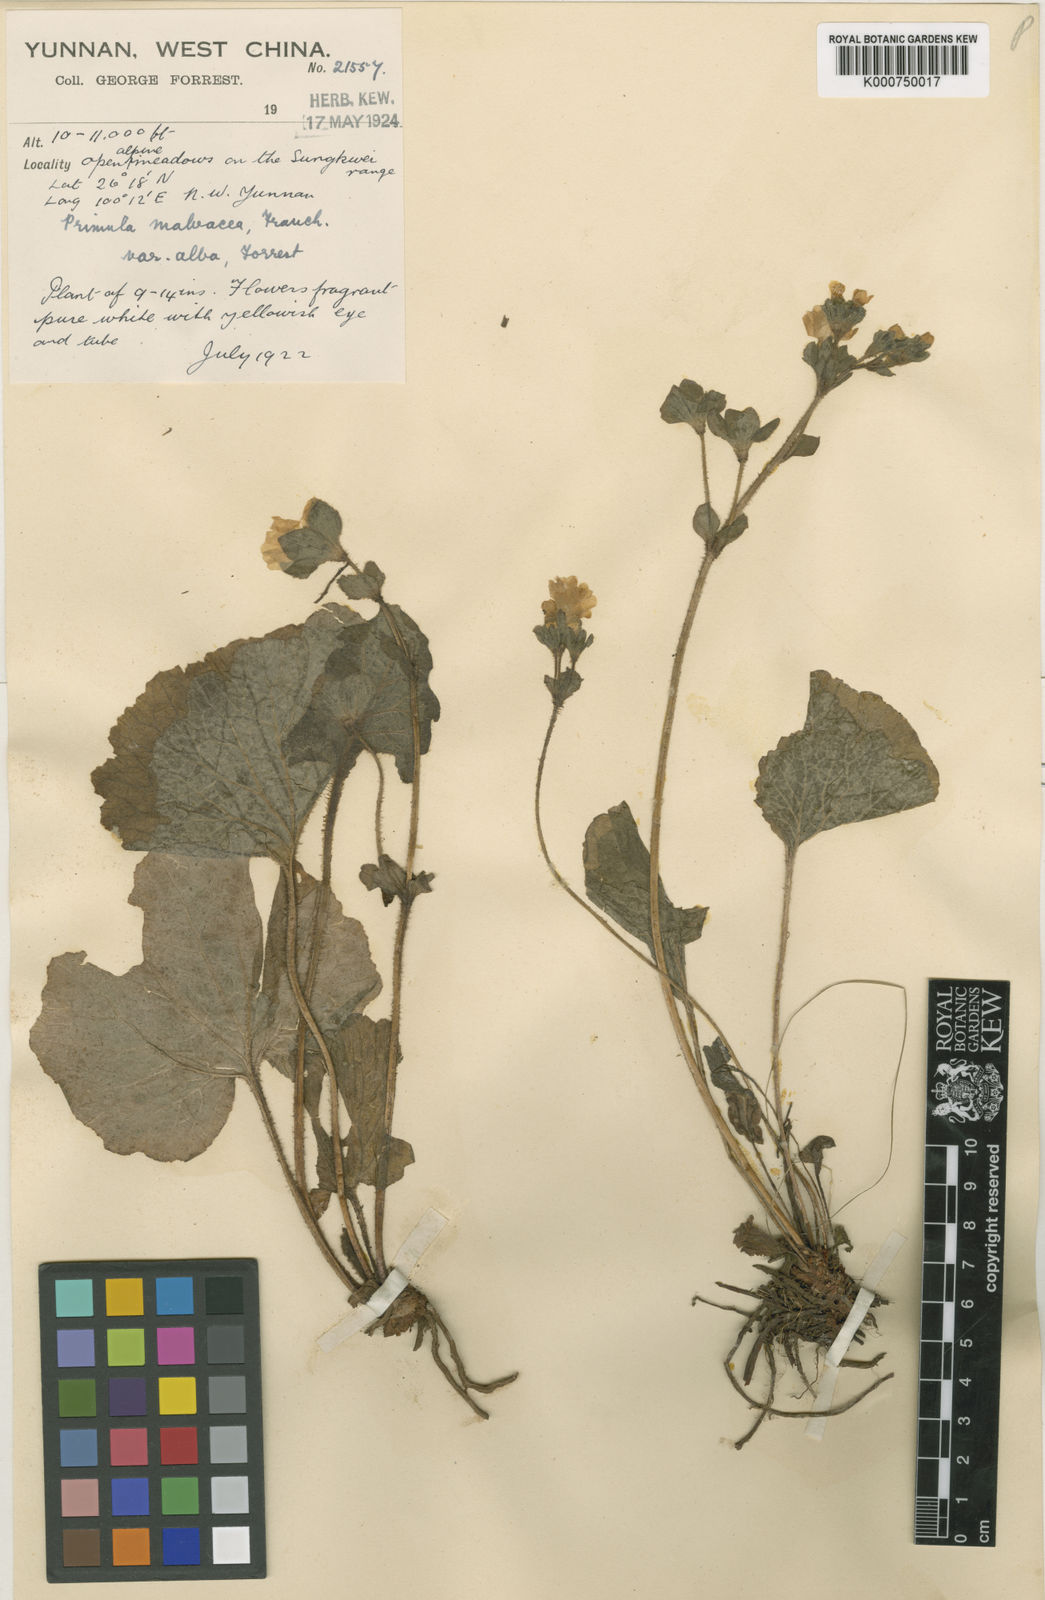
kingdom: Plantae
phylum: Tracheophyta
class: Magnoliopsida
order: Ericales
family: Primulaceae
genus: Primula
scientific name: Primula malvacea
